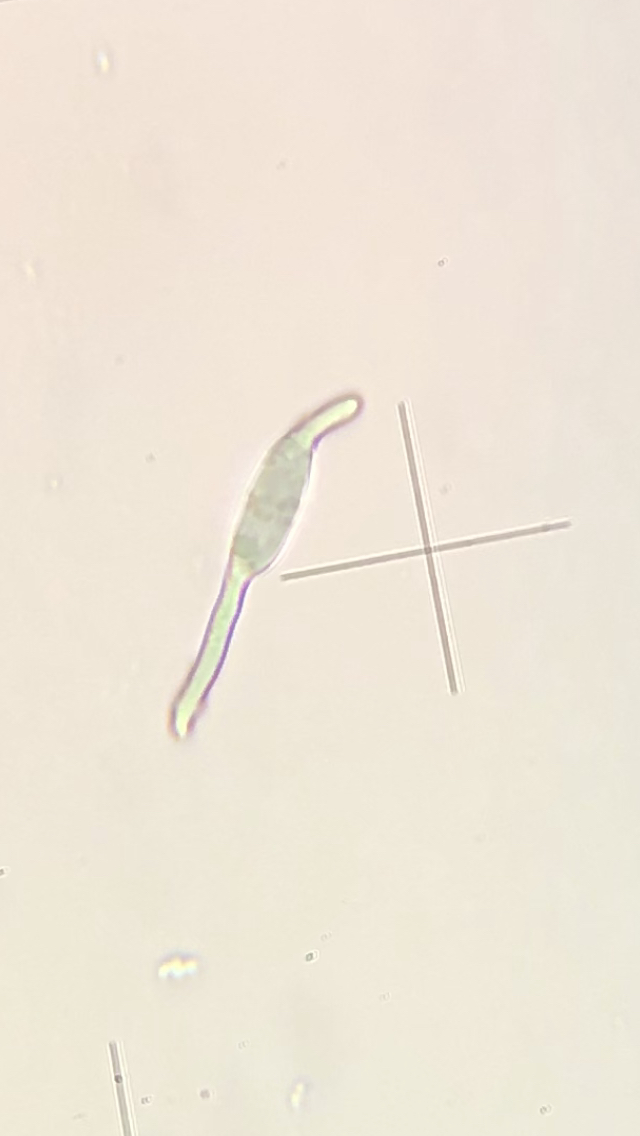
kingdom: Fungi
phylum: Ascomycota
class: Leotiomycetes
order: Helotiales
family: Pezizellaceae
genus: Calycina
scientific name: Calycina citrina
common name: almindelig gulskive
